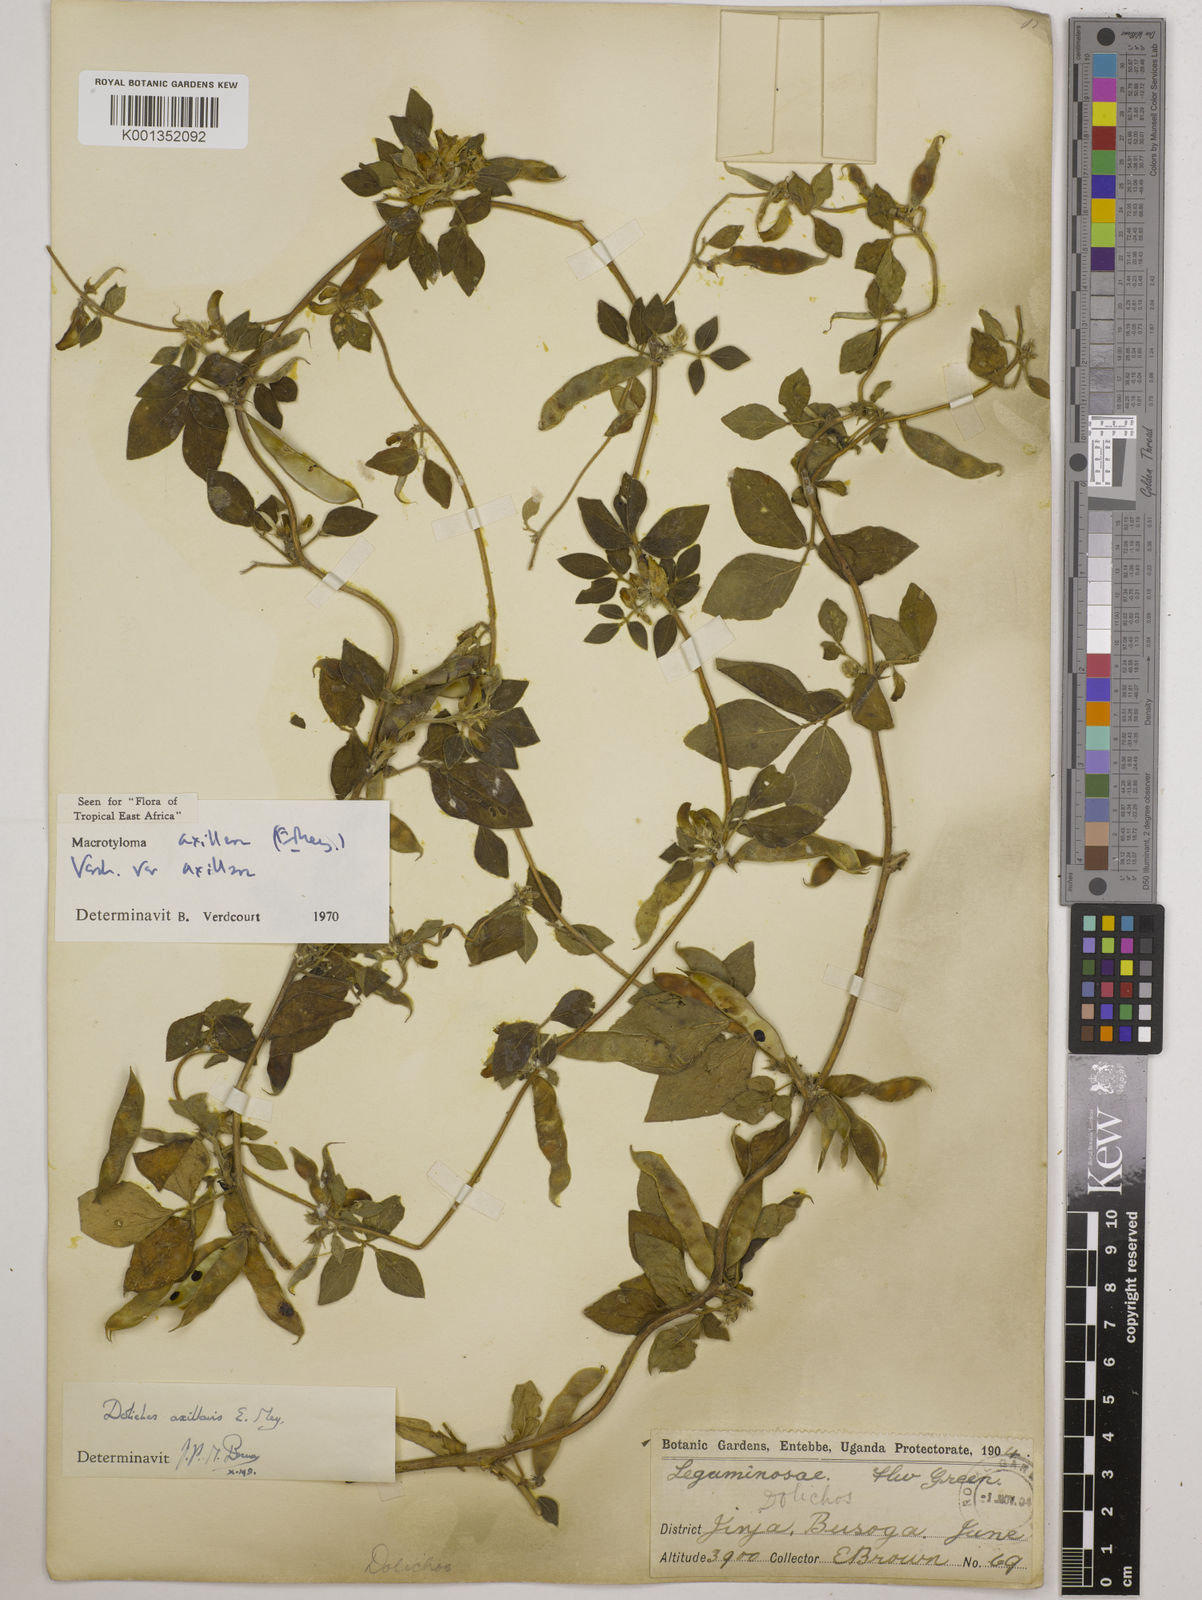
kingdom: Plantae
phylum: Tracheophyta
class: Magnoliopsida
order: Fabales
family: Fabaceae
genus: Macrotyloma
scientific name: Macrotyloma axillare
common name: Perennial horsegram
